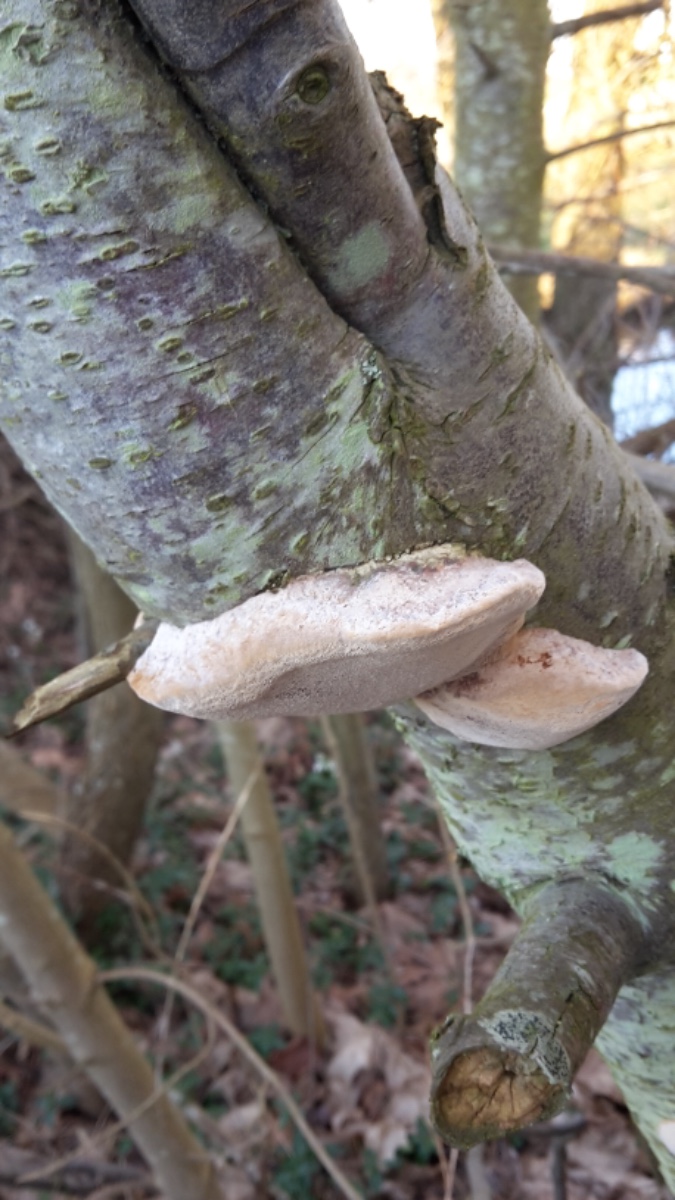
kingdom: Fungi
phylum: Basidiomycota
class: Agaricomycetes
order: Hymenochaetales
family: Hymenochaetaceae
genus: Phellinus
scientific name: Phellinus pomaceus
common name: blomme-ildporesvamp
